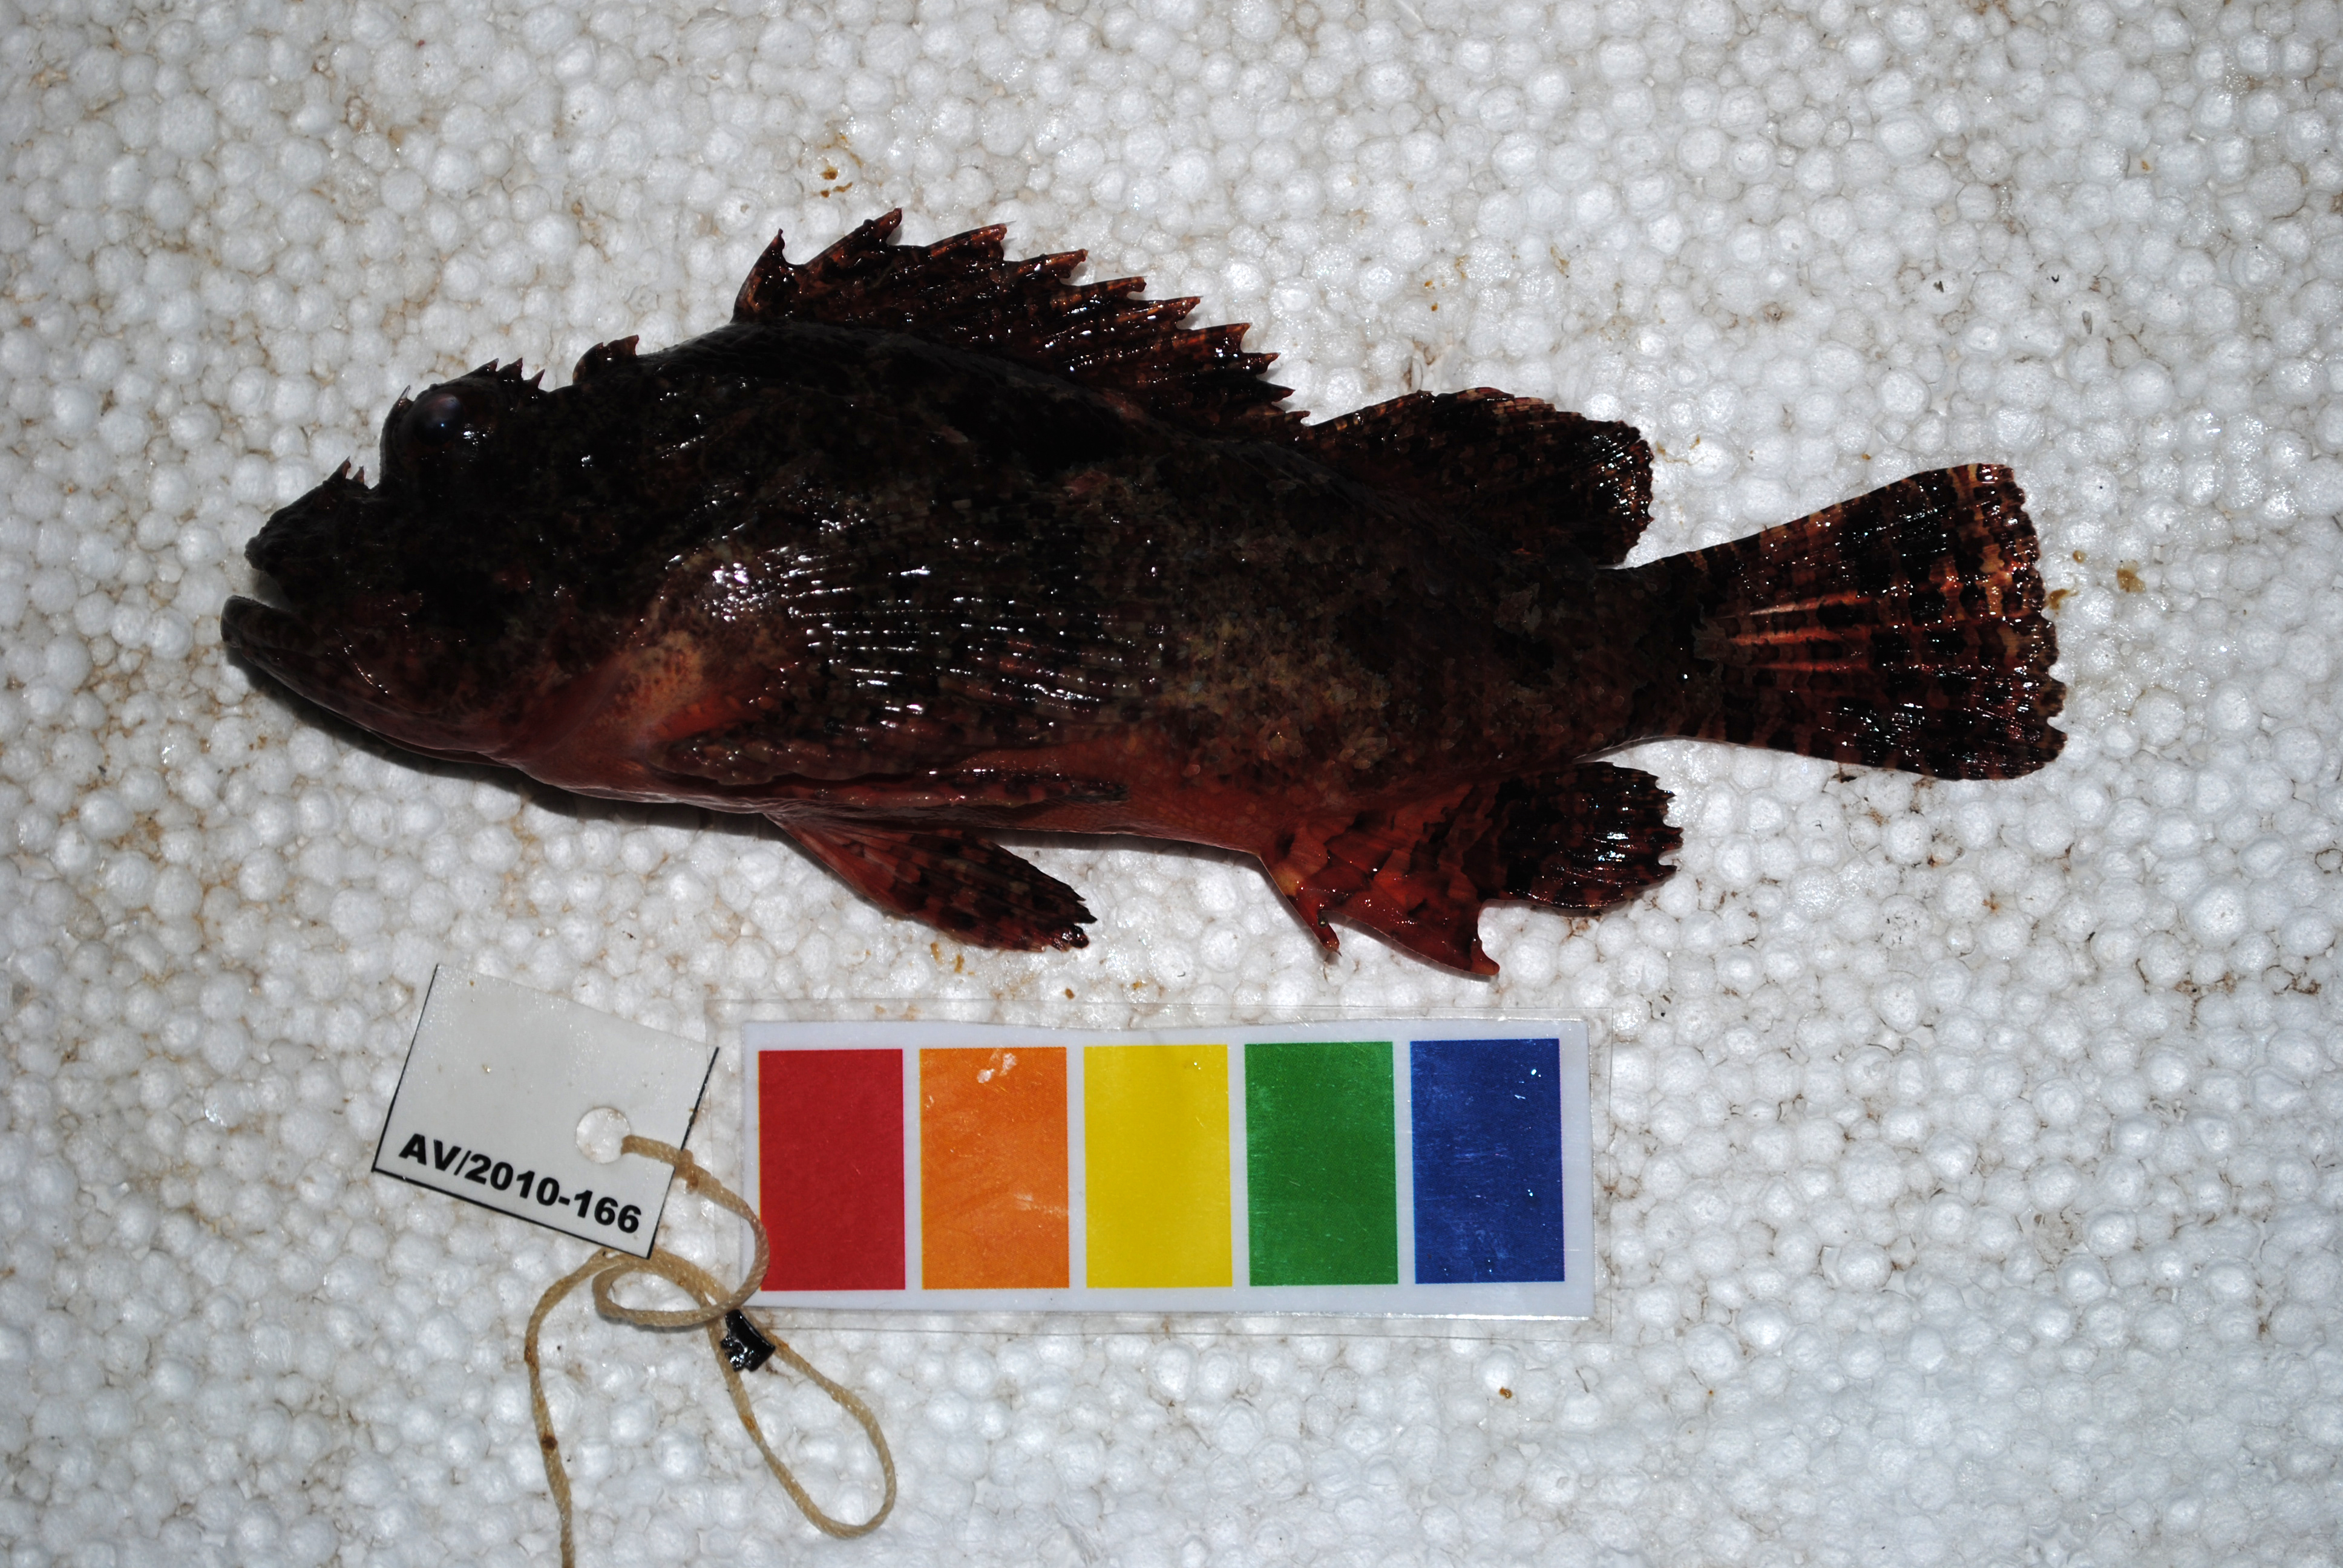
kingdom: Animalia
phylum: Chordata
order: Scorpaeniformes
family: Scorpaenidae
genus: Scorpaenopsis
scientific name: Scorpaenopsis diabolus
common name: False stonefish
